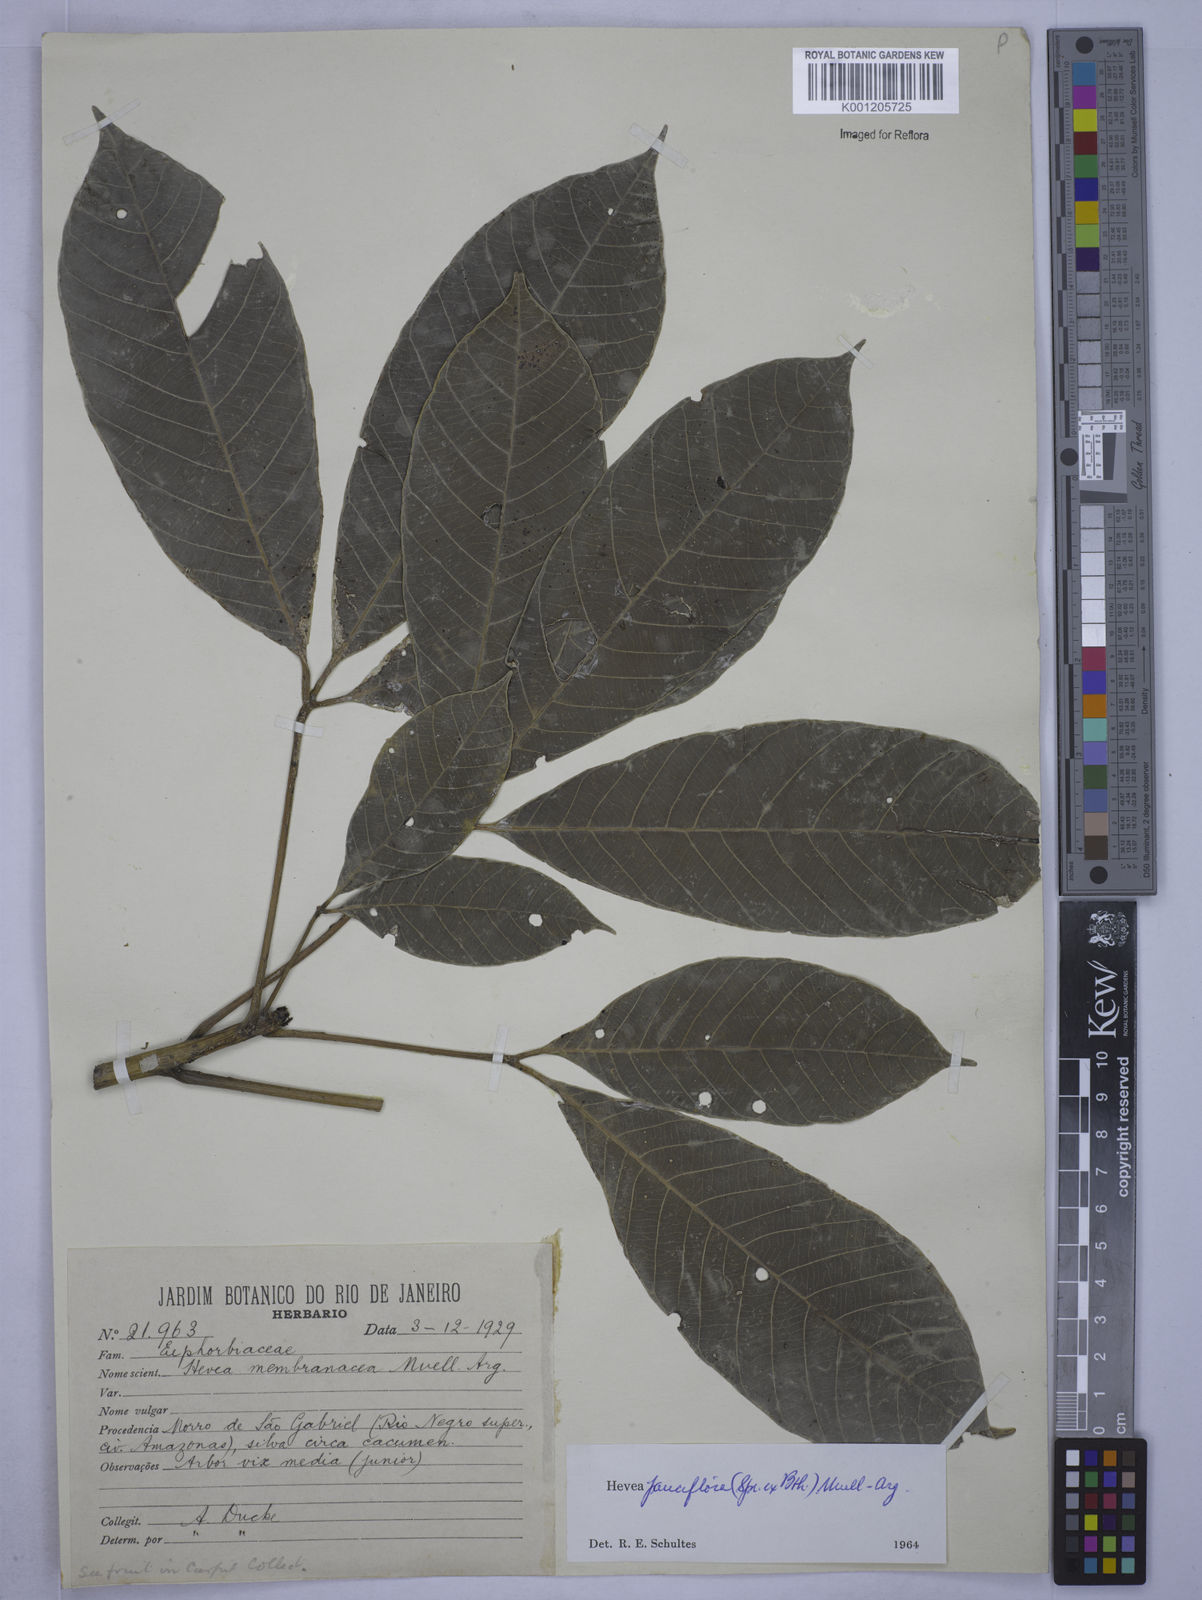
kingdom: Plantae
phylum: Tracheophyta
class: Magnoliopsida
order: Malpighiales
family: Euphorbiaceae
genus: Hevea
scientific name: Hevea
